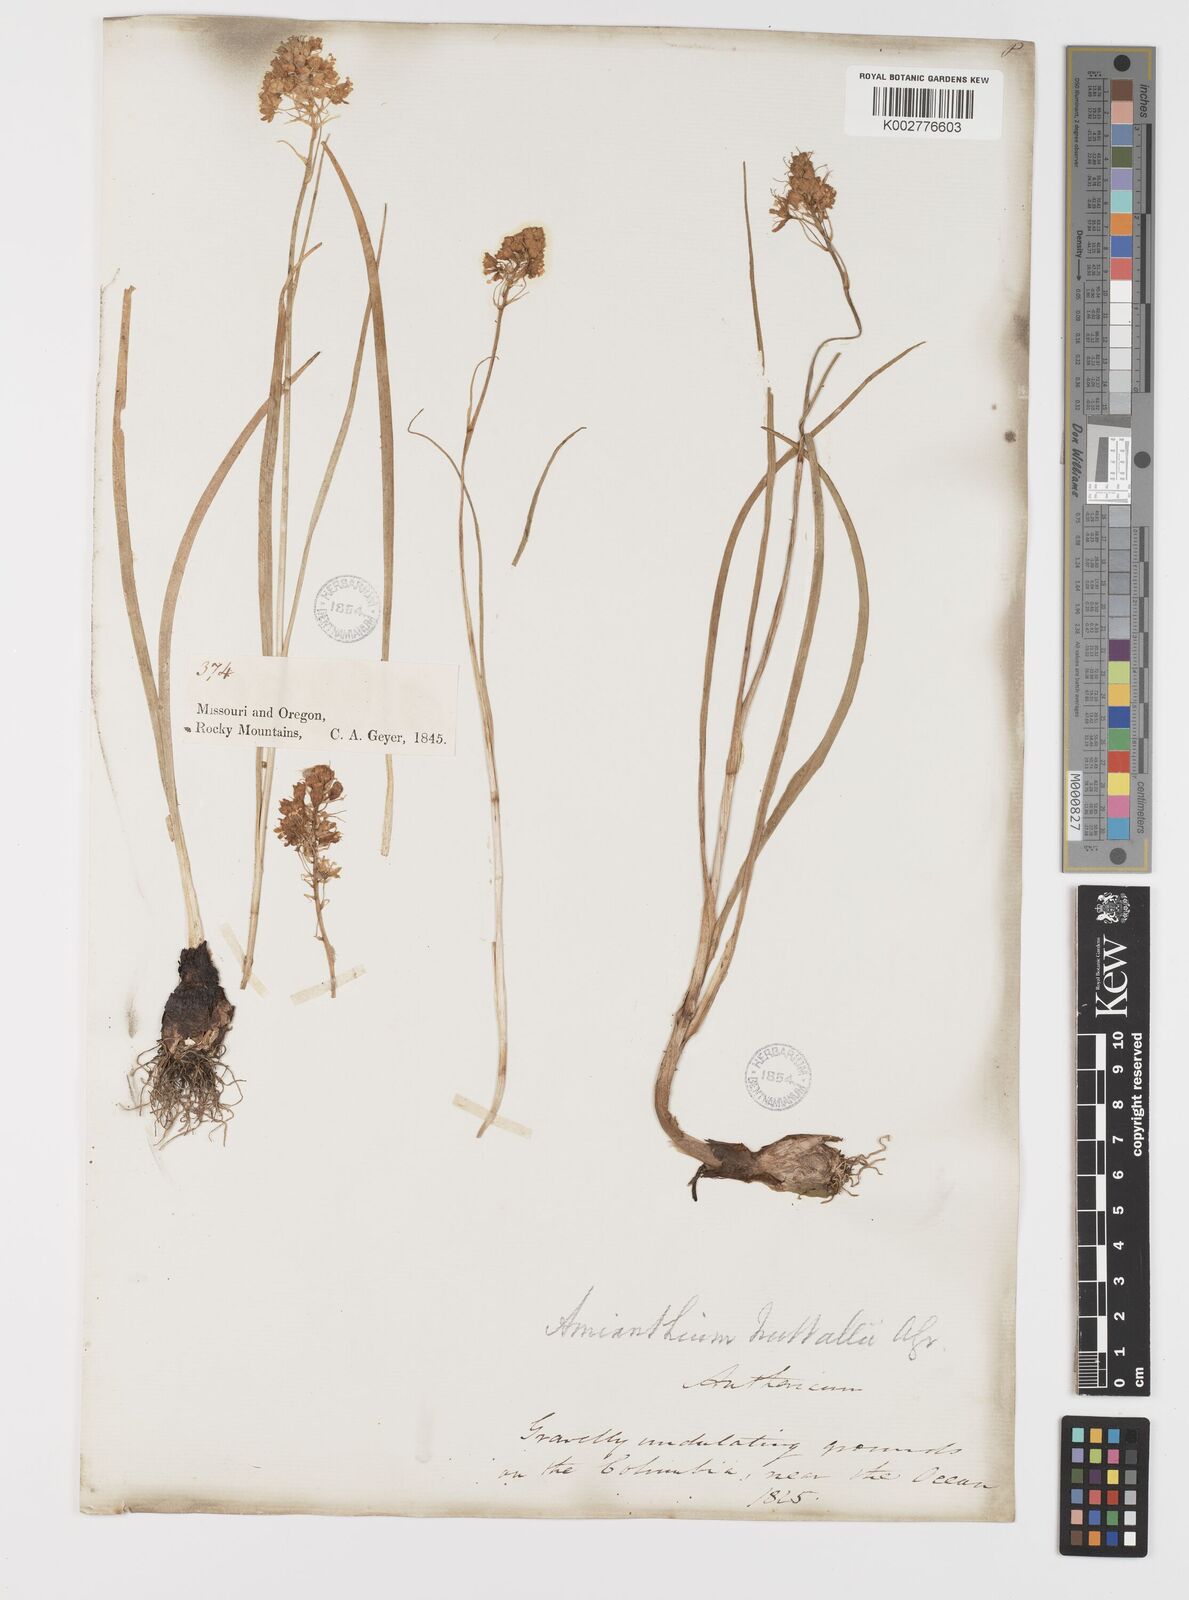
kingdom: Plantae
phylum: Tracheophyta
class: Liliopsida
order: Liliales
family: Melanthiaceae
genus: Toxicoscordion
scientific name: Toxicoscordion nuttallii
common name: Poison sego
